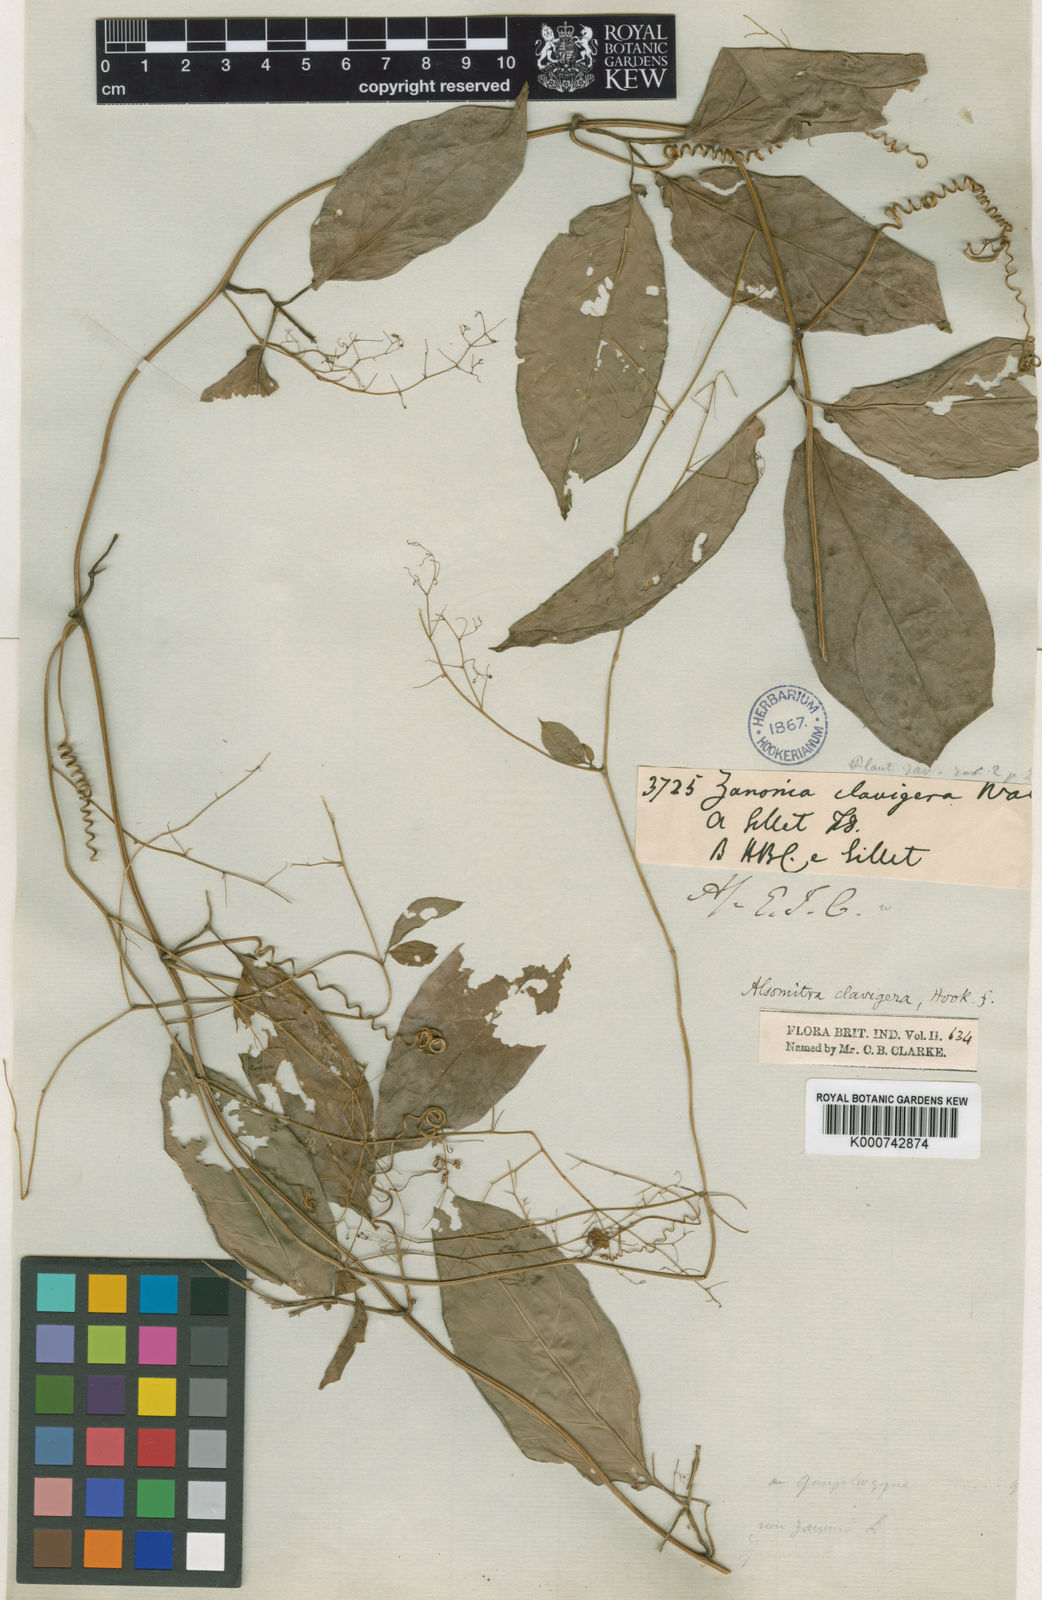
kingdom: Plantae
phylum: Tracheophyta
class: Magnoliopsida
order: Cucurbitales
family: Cucurbitaceae
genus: Neoalsomitra
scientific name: Neoalsomitra clavigera
